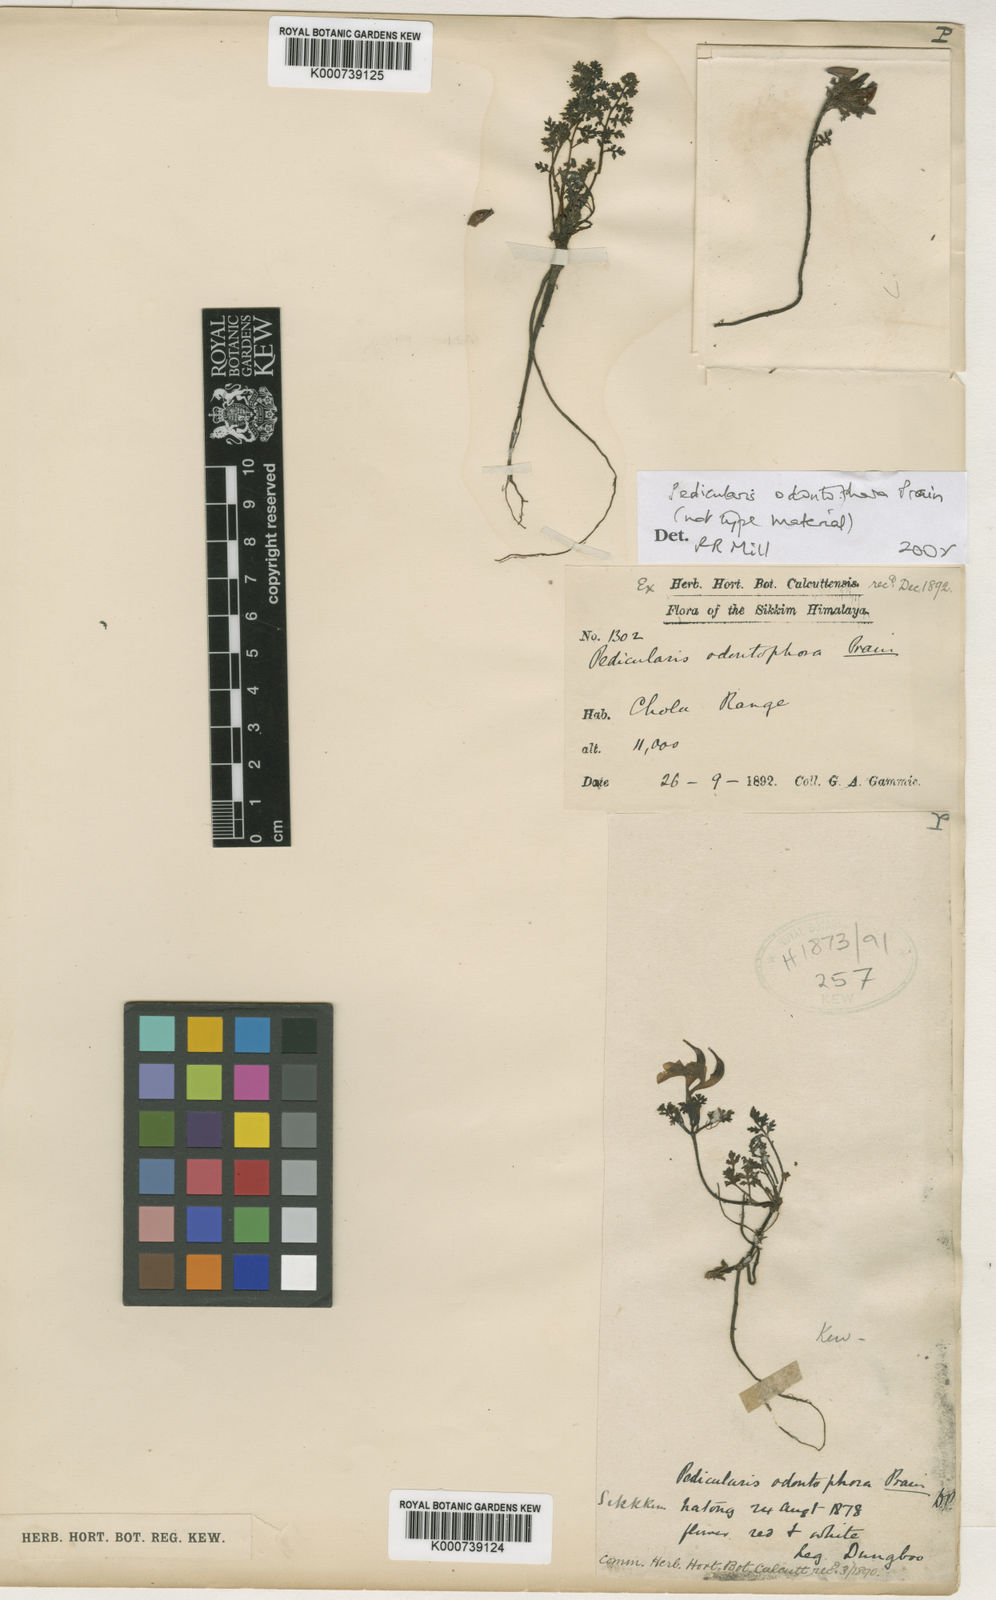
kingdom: Plantae
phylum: Tracheophyta
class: Magnoliopsida
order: Lamiales
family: Orobanchaceae
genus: Pedicularis
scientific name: Pedicularis odontophora
